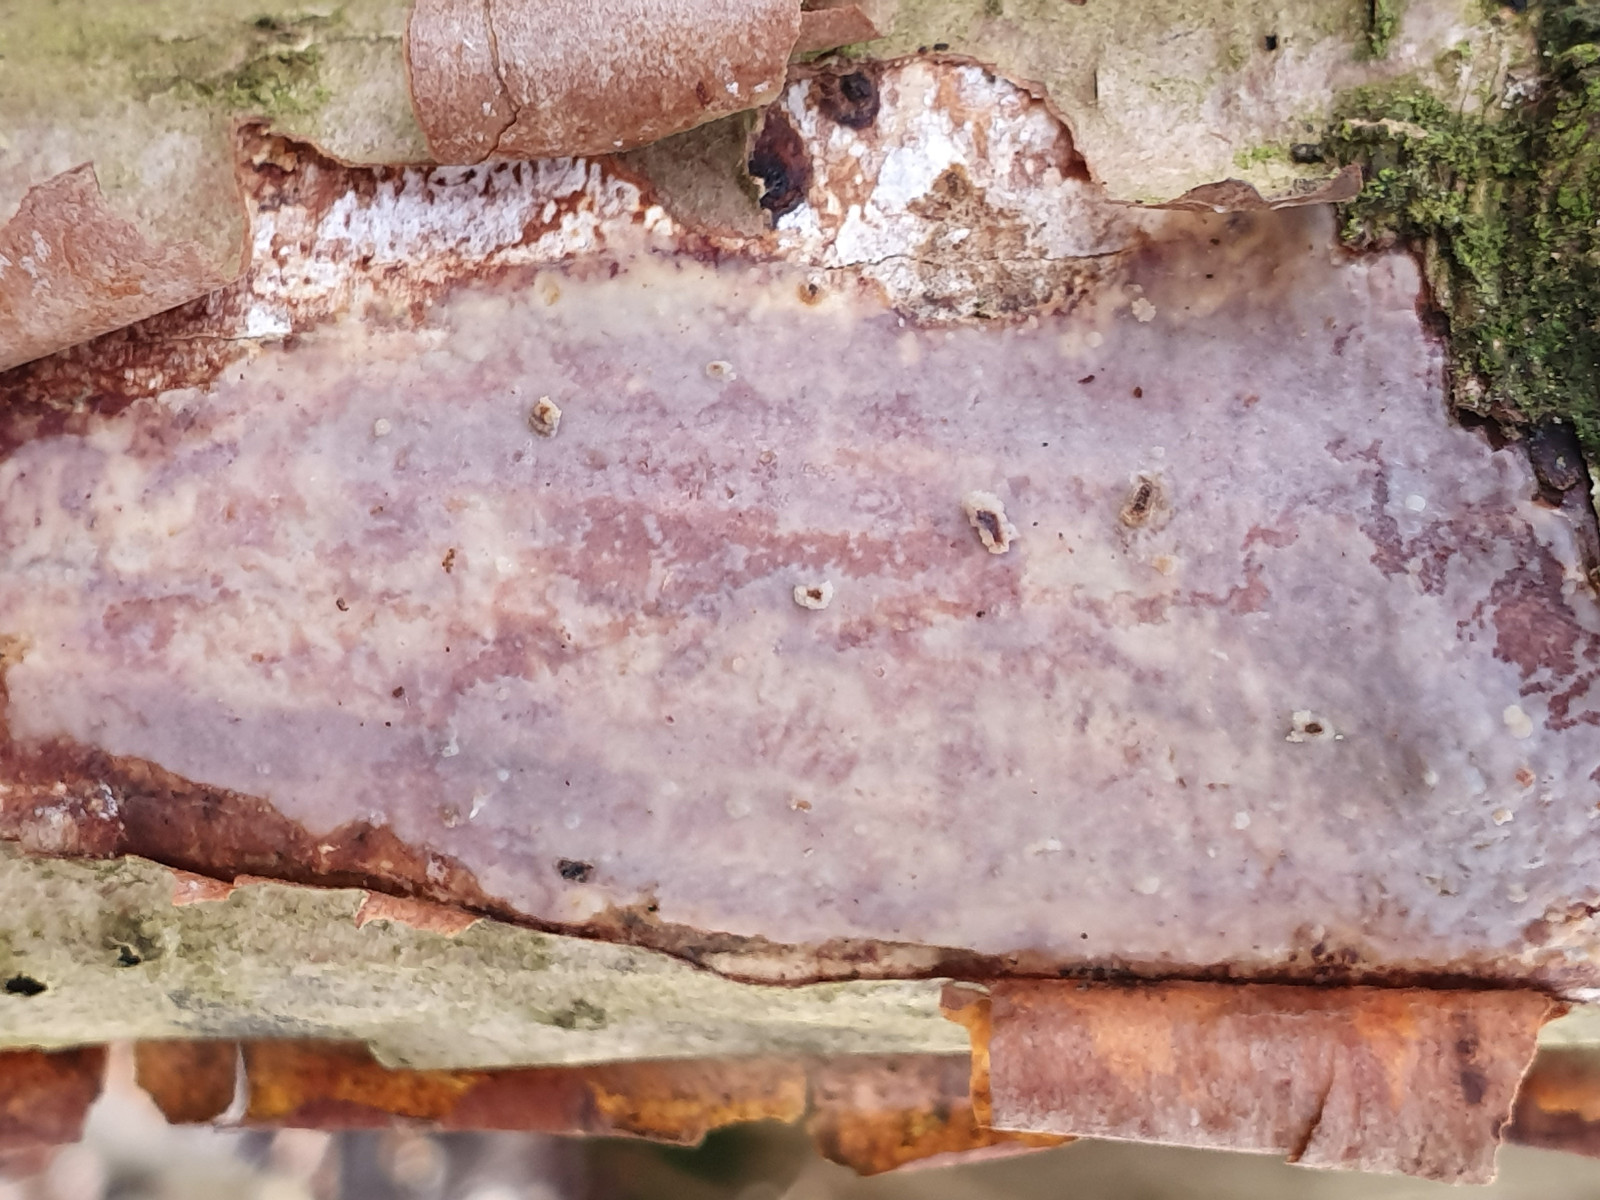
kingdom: Fungi
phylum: Basidiomycota
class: Agaricomycetes
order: Corticiales
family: Vuilleminiaceae
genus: Vuilleminia
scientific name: Vuilleminia coryli
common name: hassel-barksprænger
